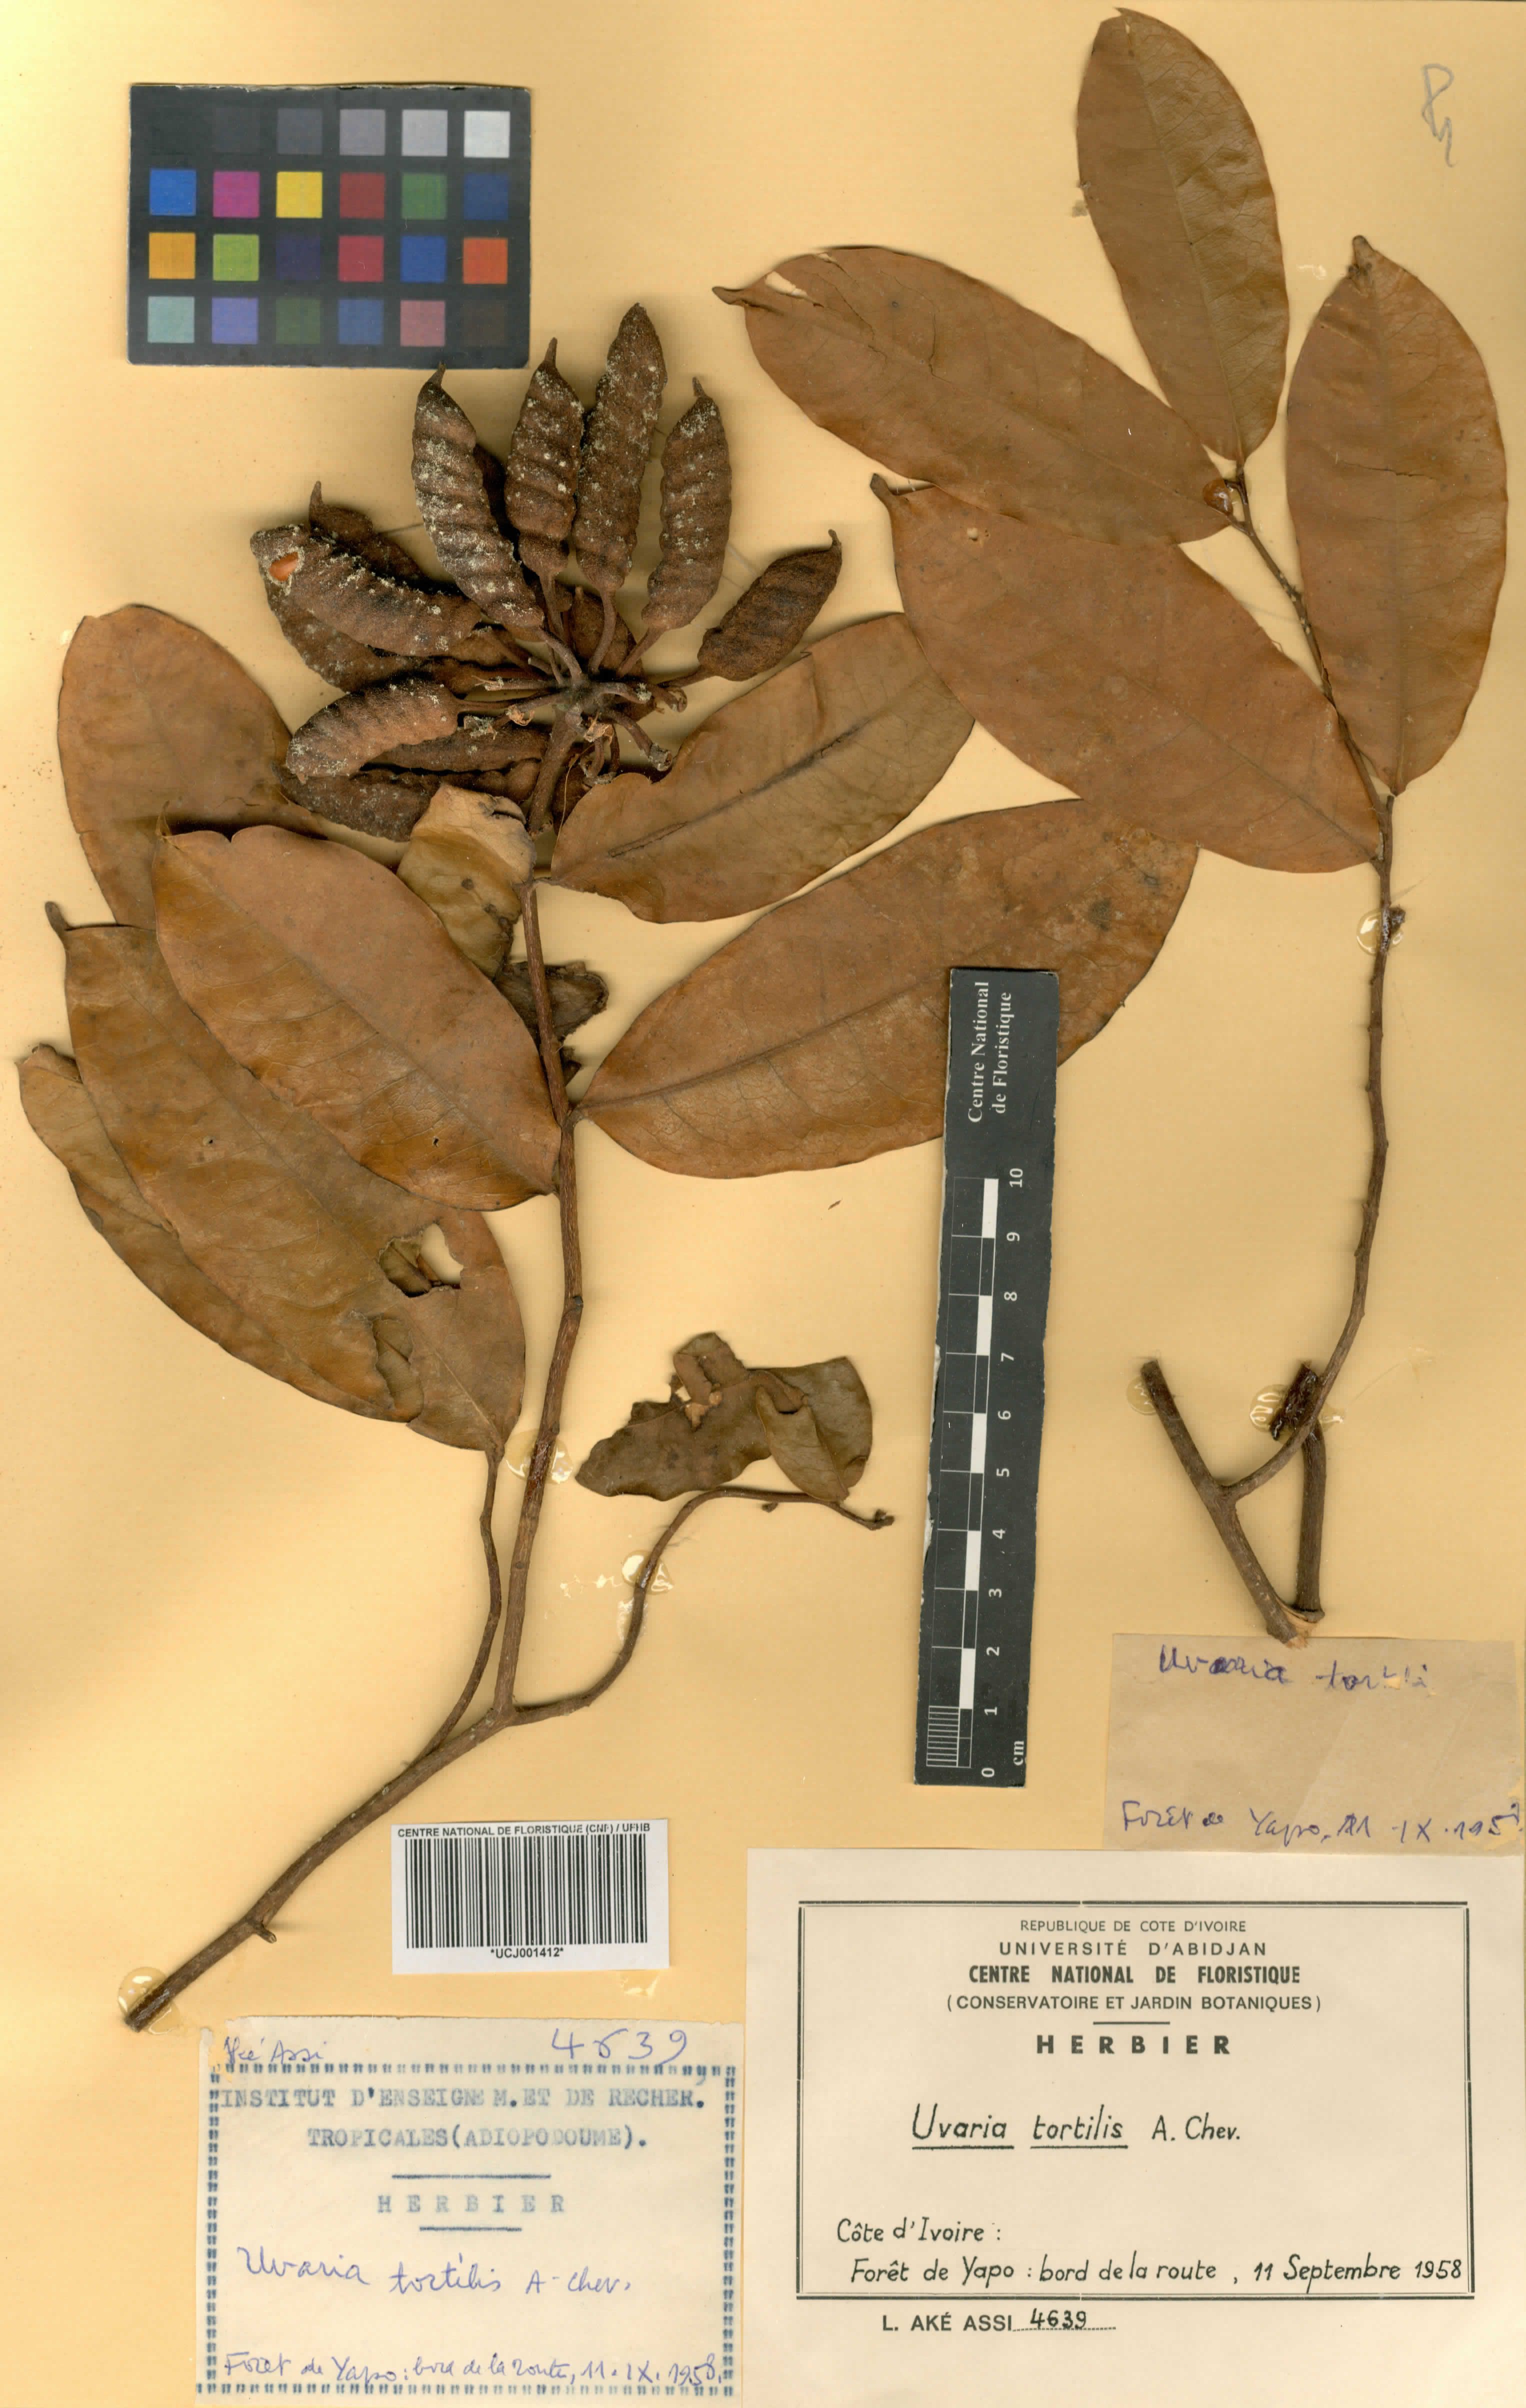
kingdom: Plantae
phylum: Tracheophyta
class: Magnoliopsida
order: Magnoliales
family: Annonaceae
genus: Uvaria
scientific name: Uvaria tortilis
